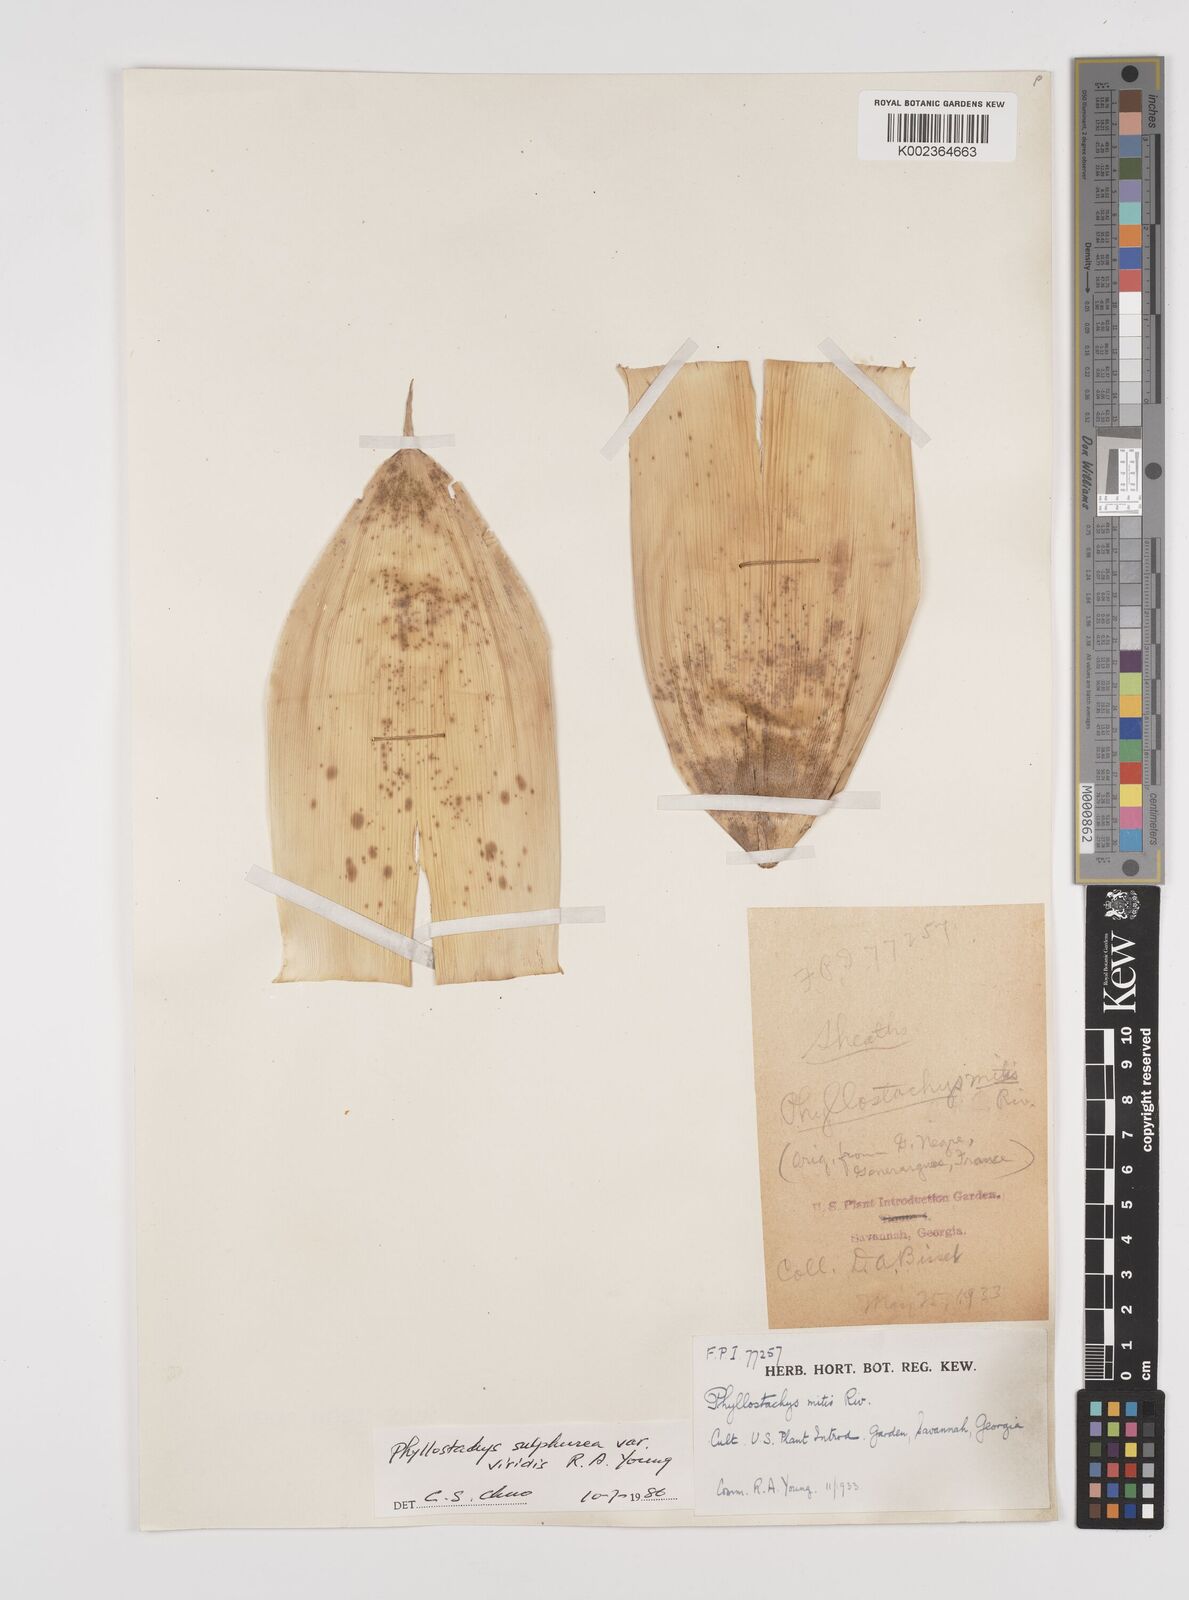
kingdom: Plantae
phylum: Tracheophyta
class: Liliopsida
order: Poales
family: Poaceae
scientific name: Poaceae
